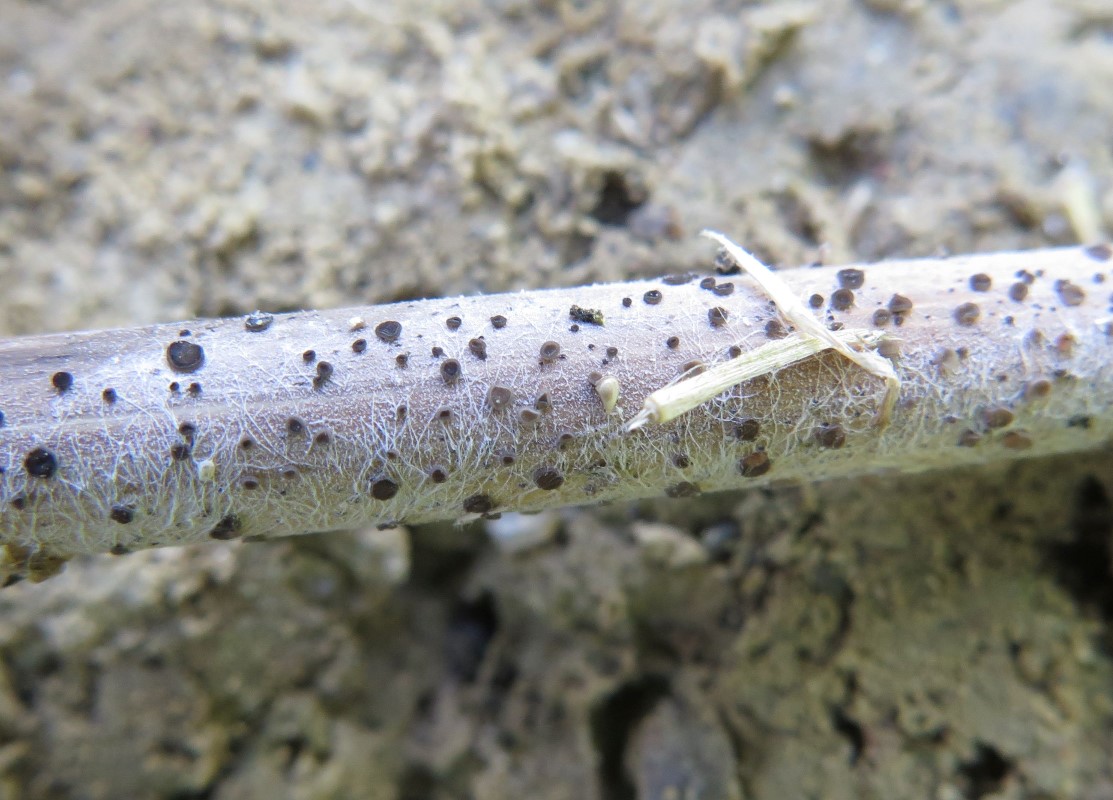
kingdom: Fungi
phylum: Ascomycota
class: Leotiomycetes
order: Helotiales
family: Mollisiaceae
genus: Mollisia
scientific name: Mollisia hydrophila
